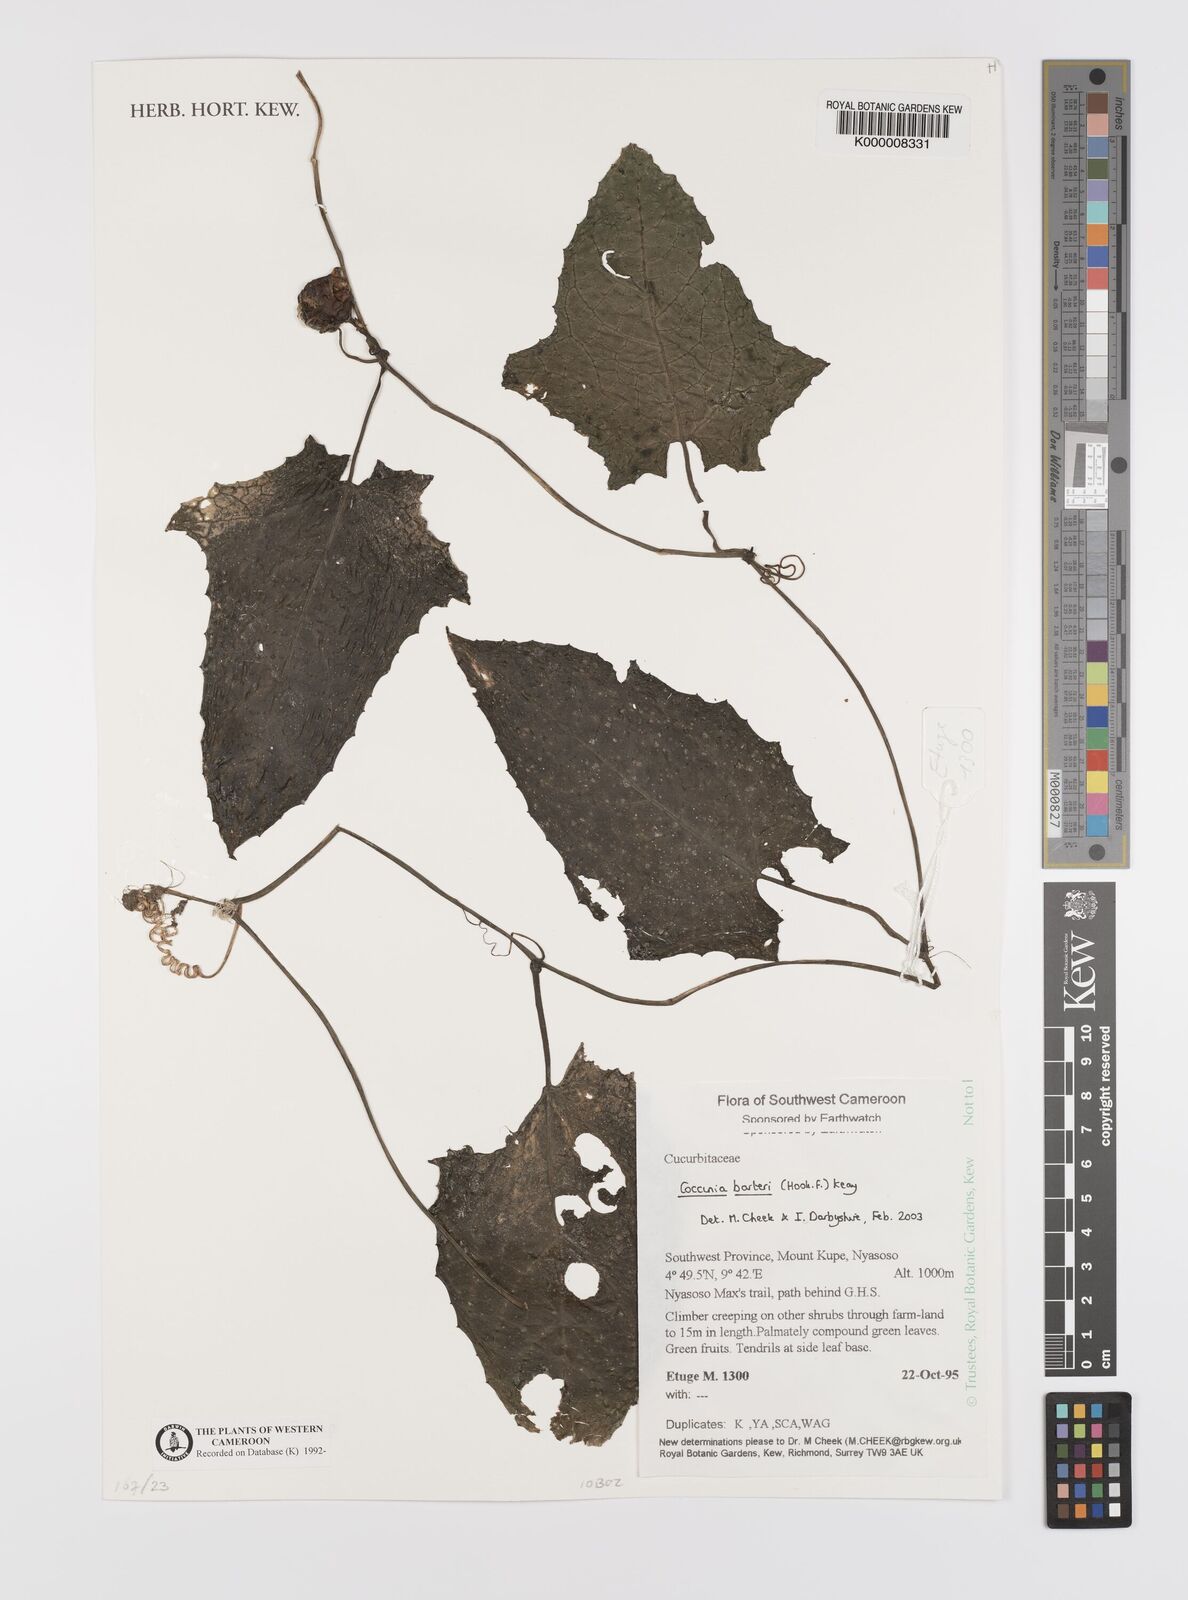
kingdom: Plantae
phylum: Tracheophyta
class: Magnoliopsida
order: Cucurbitales
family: Cucurbitaceae
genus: Coccinia
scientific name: Coccinia barteri
